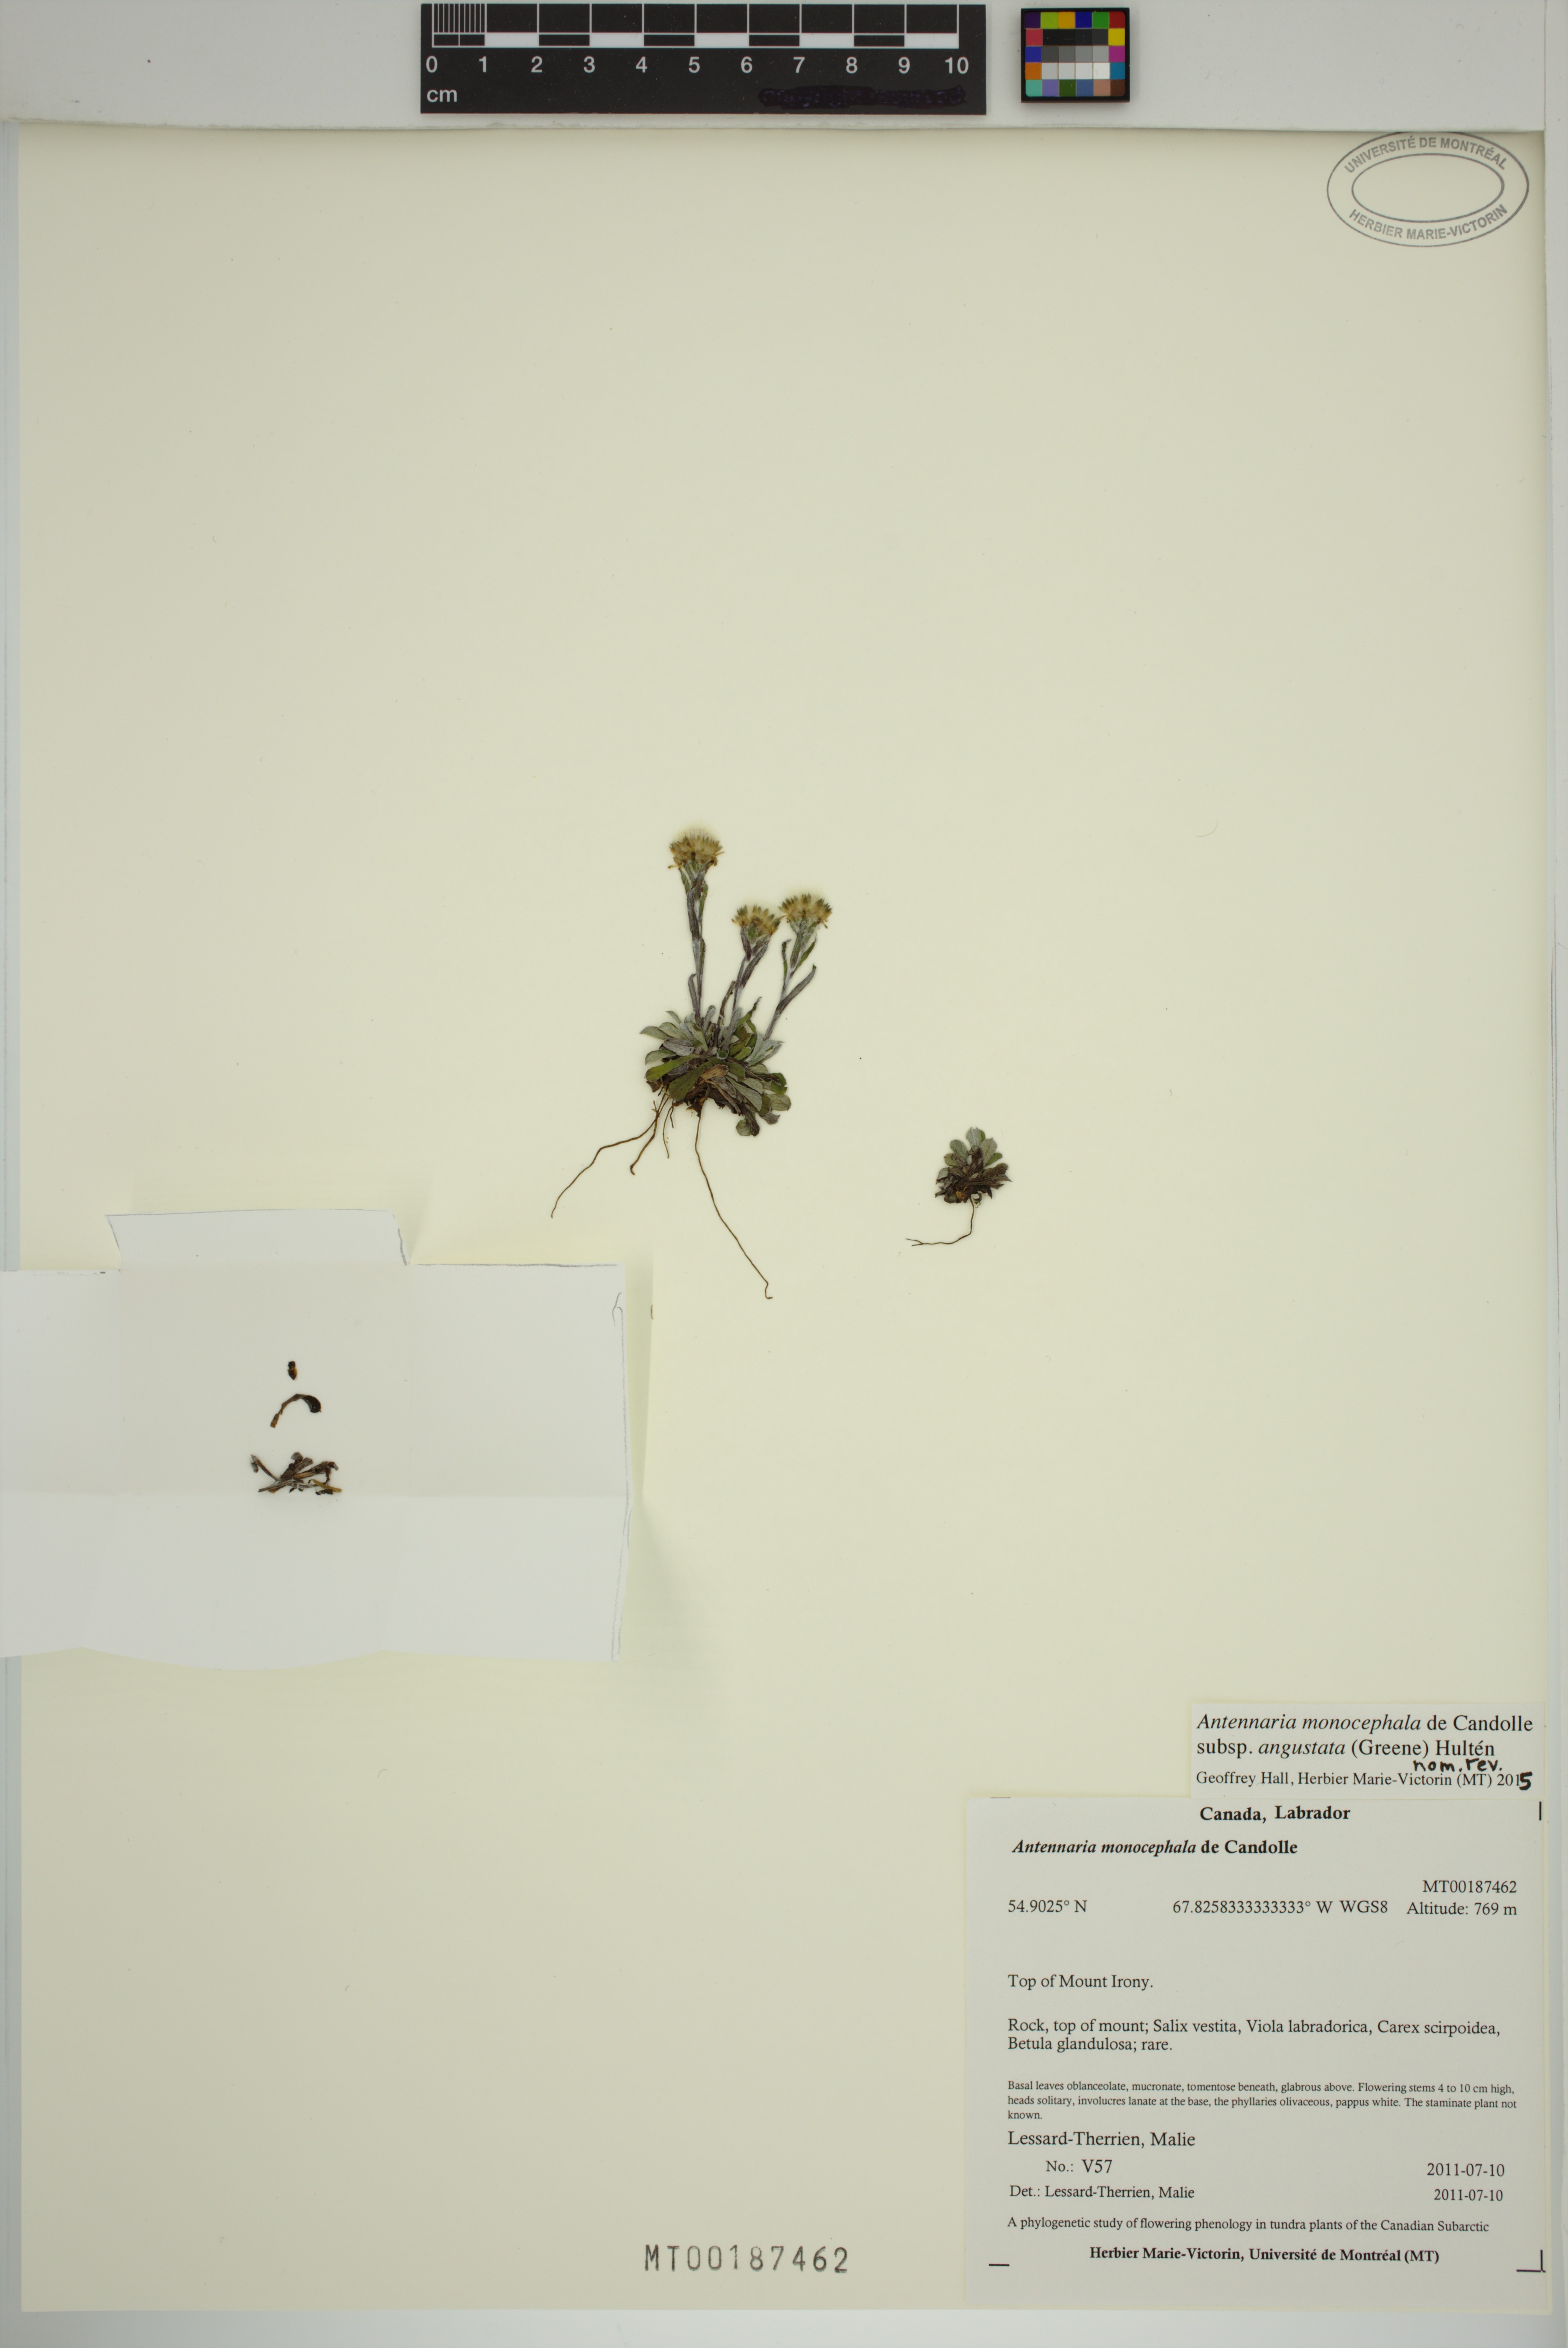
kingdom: Plantae
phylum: Tracheophyta
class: Magnoliopsida
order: Asterales
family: Asteraceae
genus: Antennaria
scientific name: Antennaria monocephala
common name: Pygmy pussytoes
